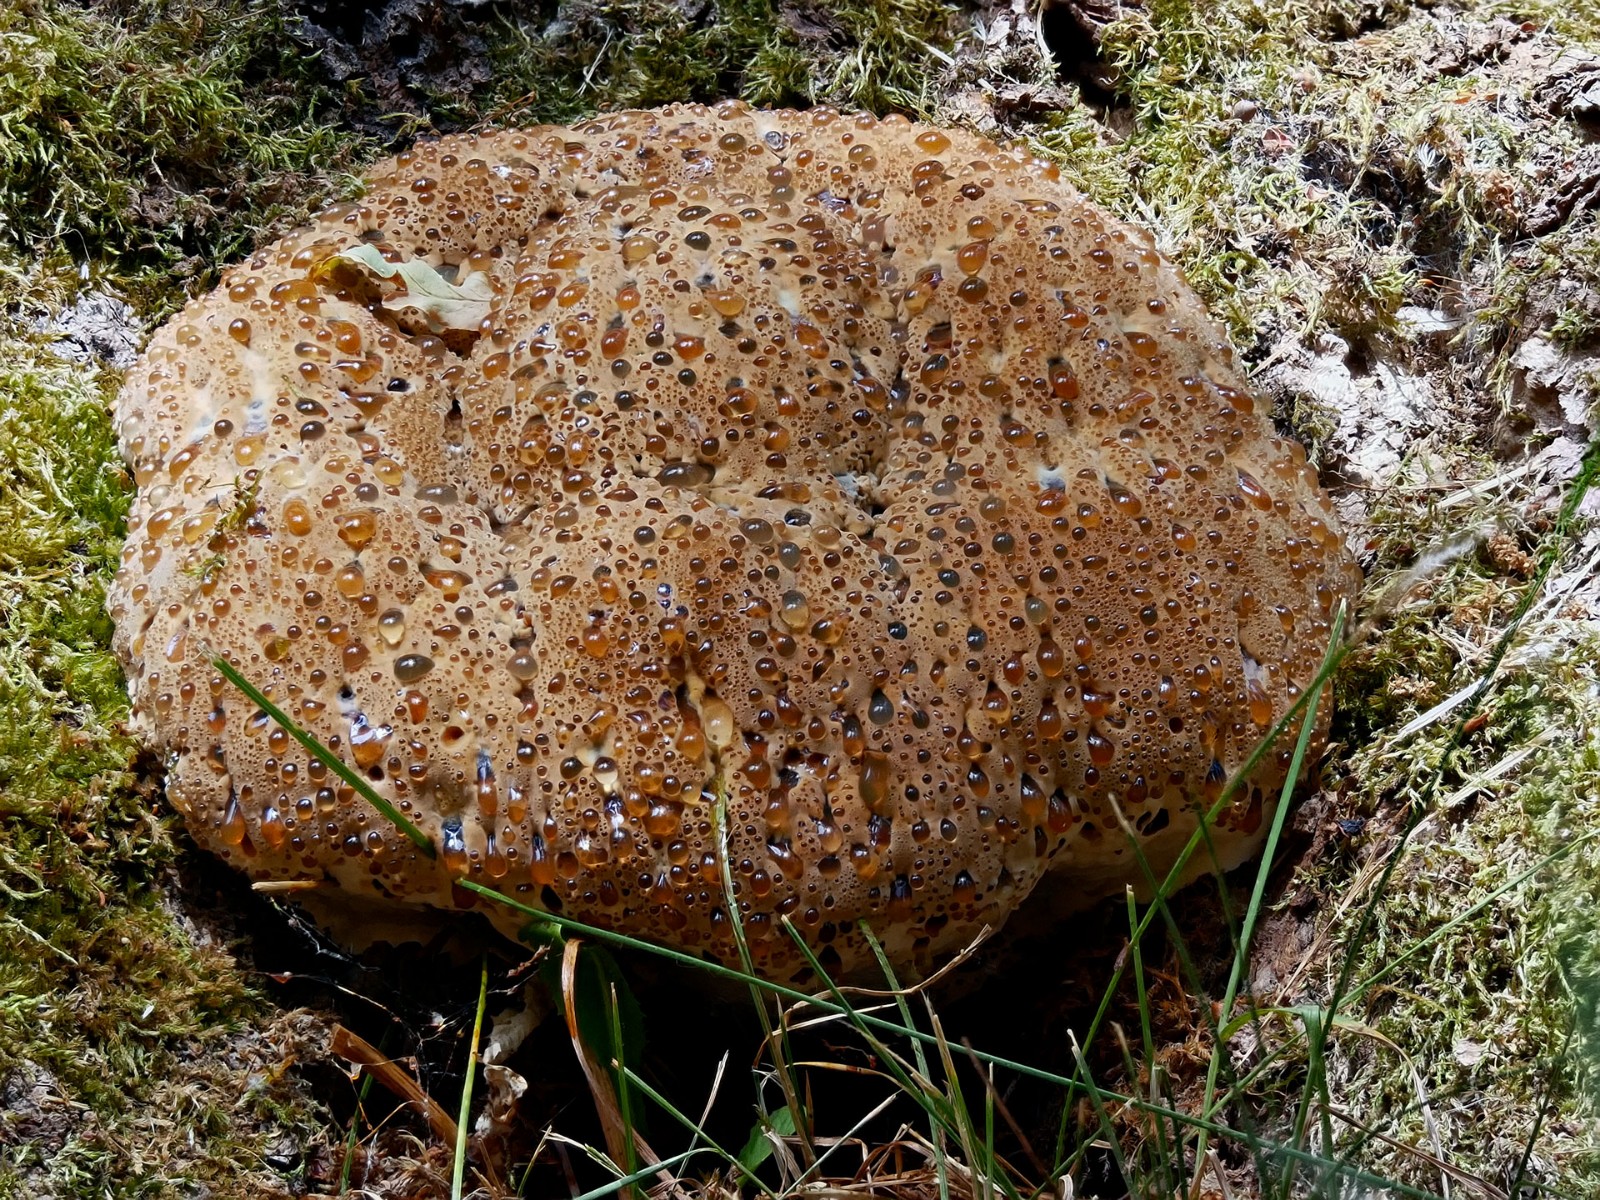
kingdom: Fungi
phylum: Basidiomycota
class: Agaricomycetes
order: Hymenochaetales
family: Hymenochaetaceae
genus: Pseudoinonotus
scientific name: Pseudoinonotus dryadeus
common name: ege-spejlporesvamp
